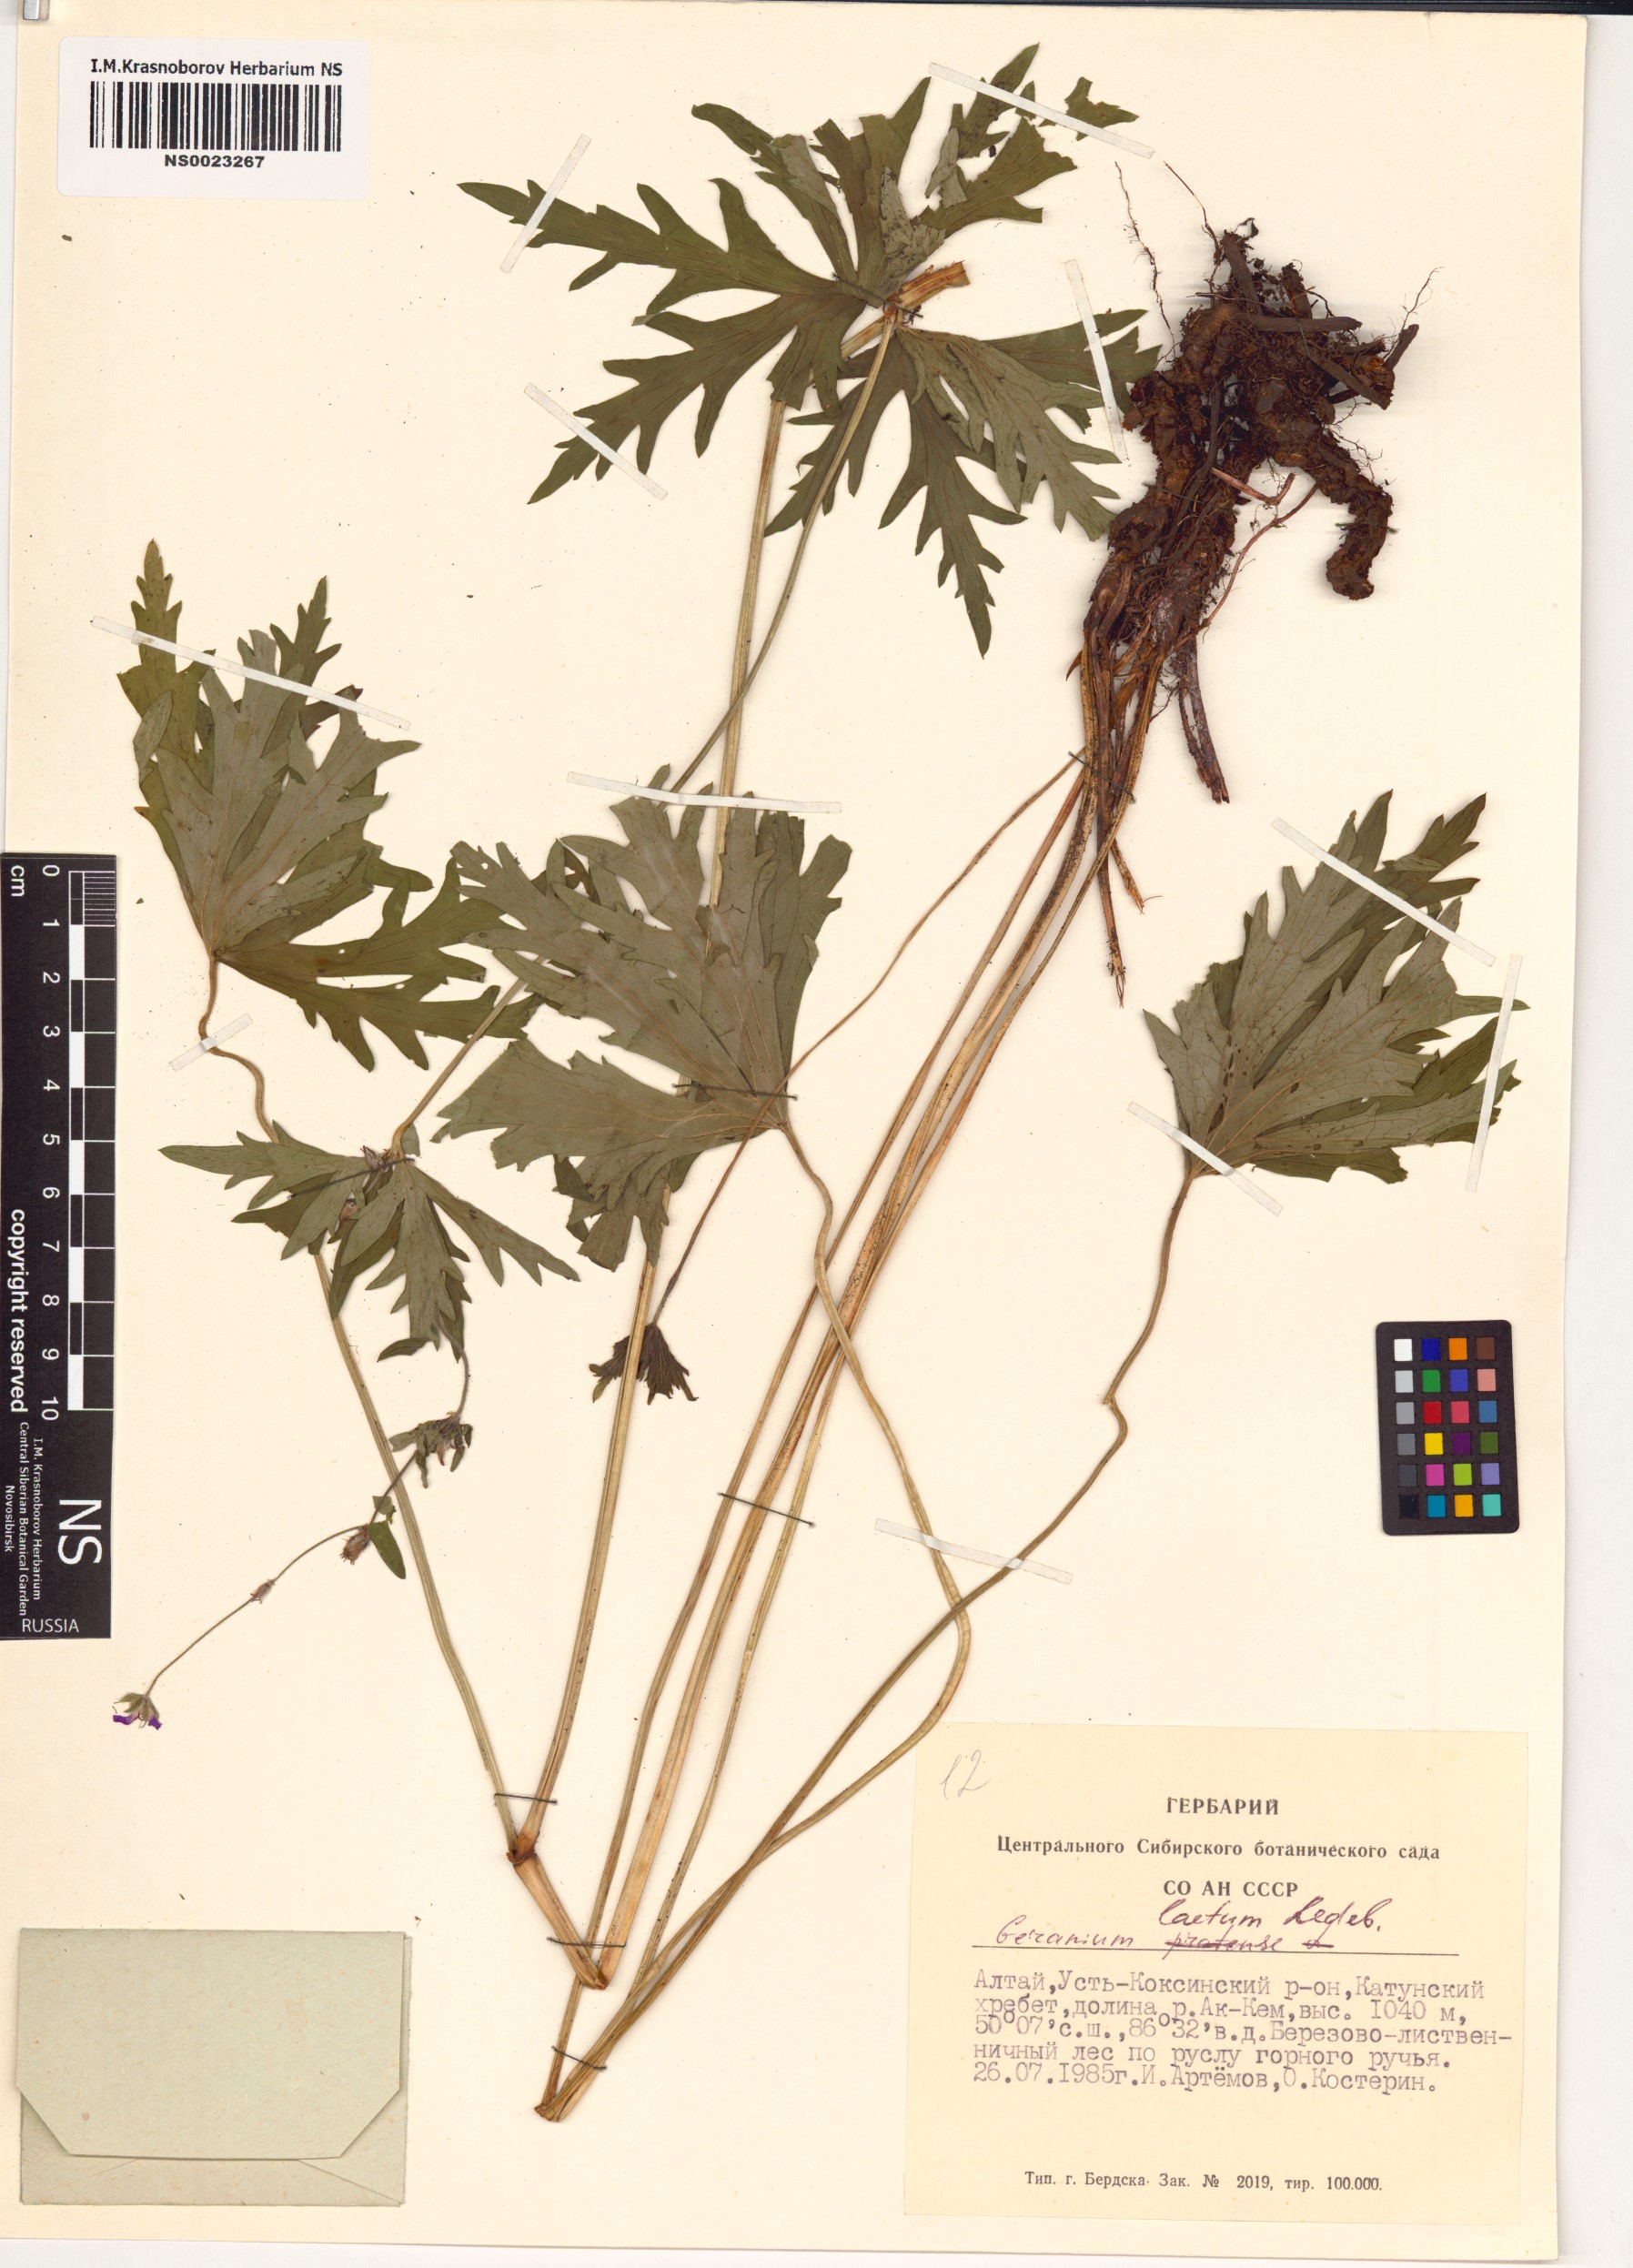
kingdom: Plantae
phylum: Tracheophyta
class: Magnoliopsida
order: Geraniales
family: Geraniaceae
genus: Geranium
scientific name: Geranium pseudosibiricum
